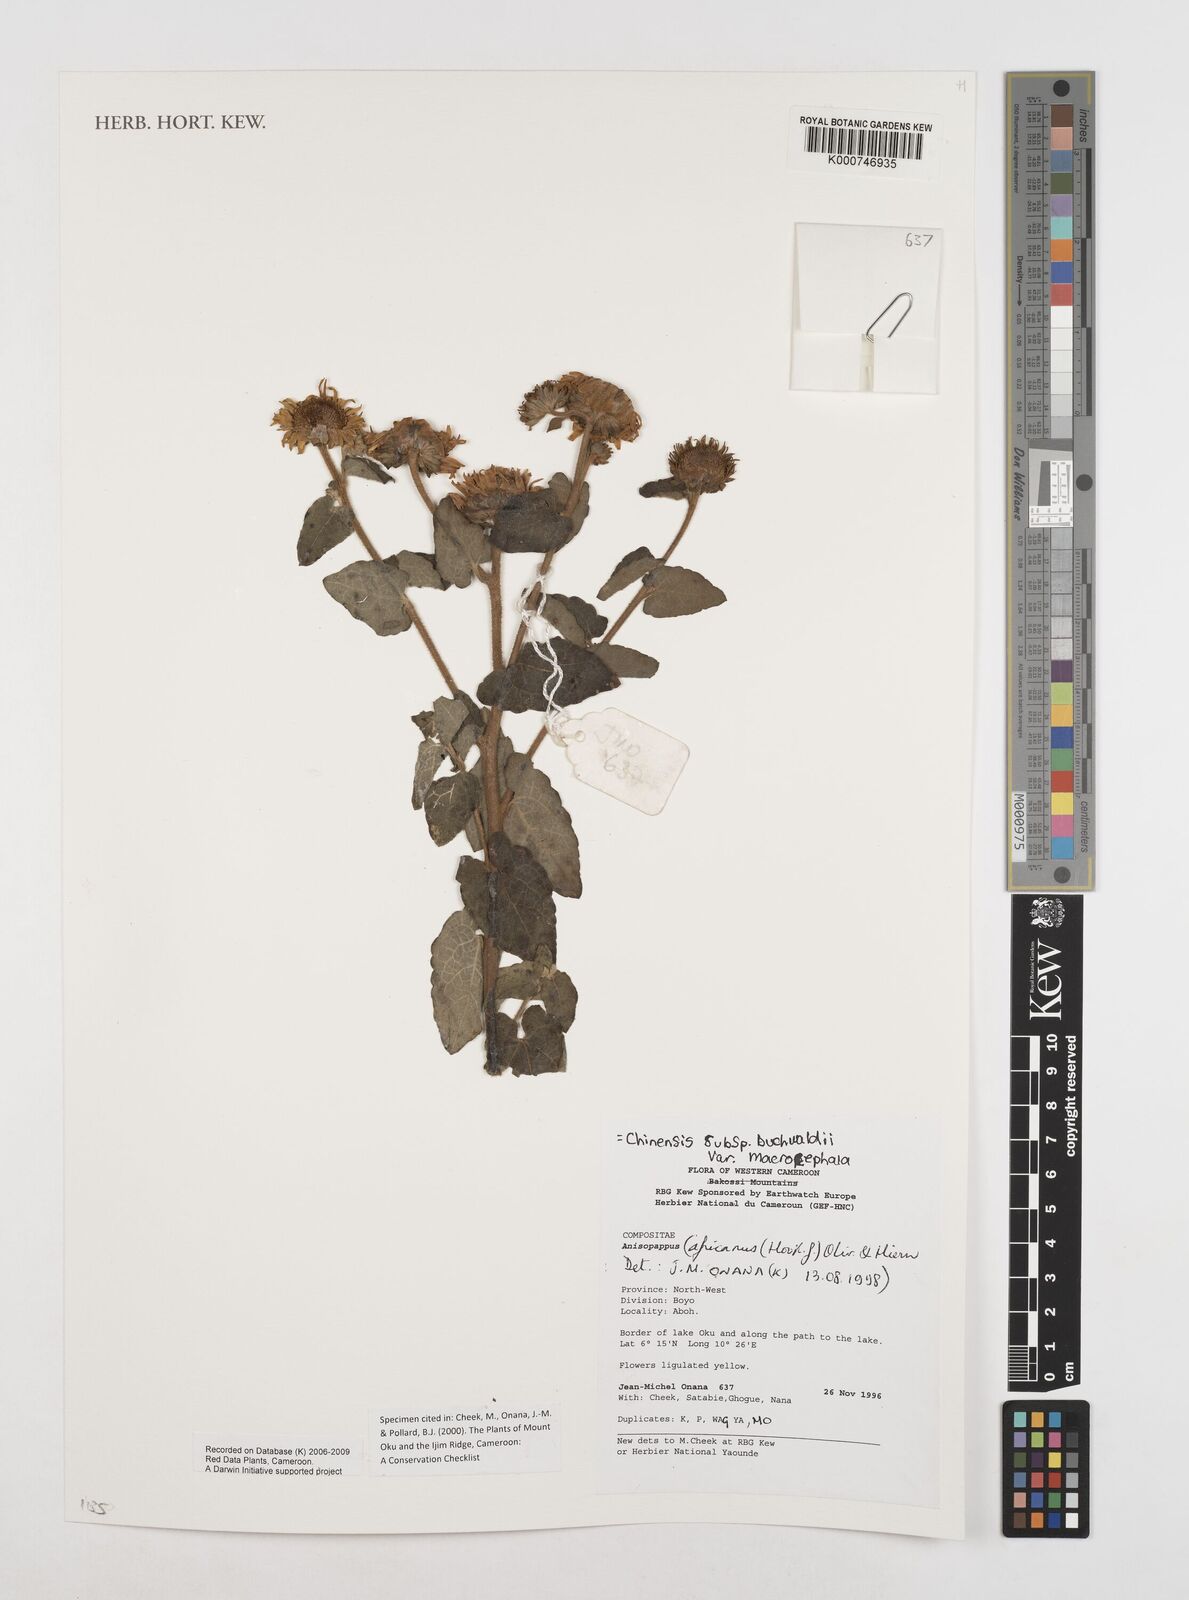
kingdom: Plantae
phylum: Tracheophyta
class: Magnoliopsida
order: Asterales
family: Asteraceae
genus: Anisopappus
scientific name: Anisopappus chinensis
